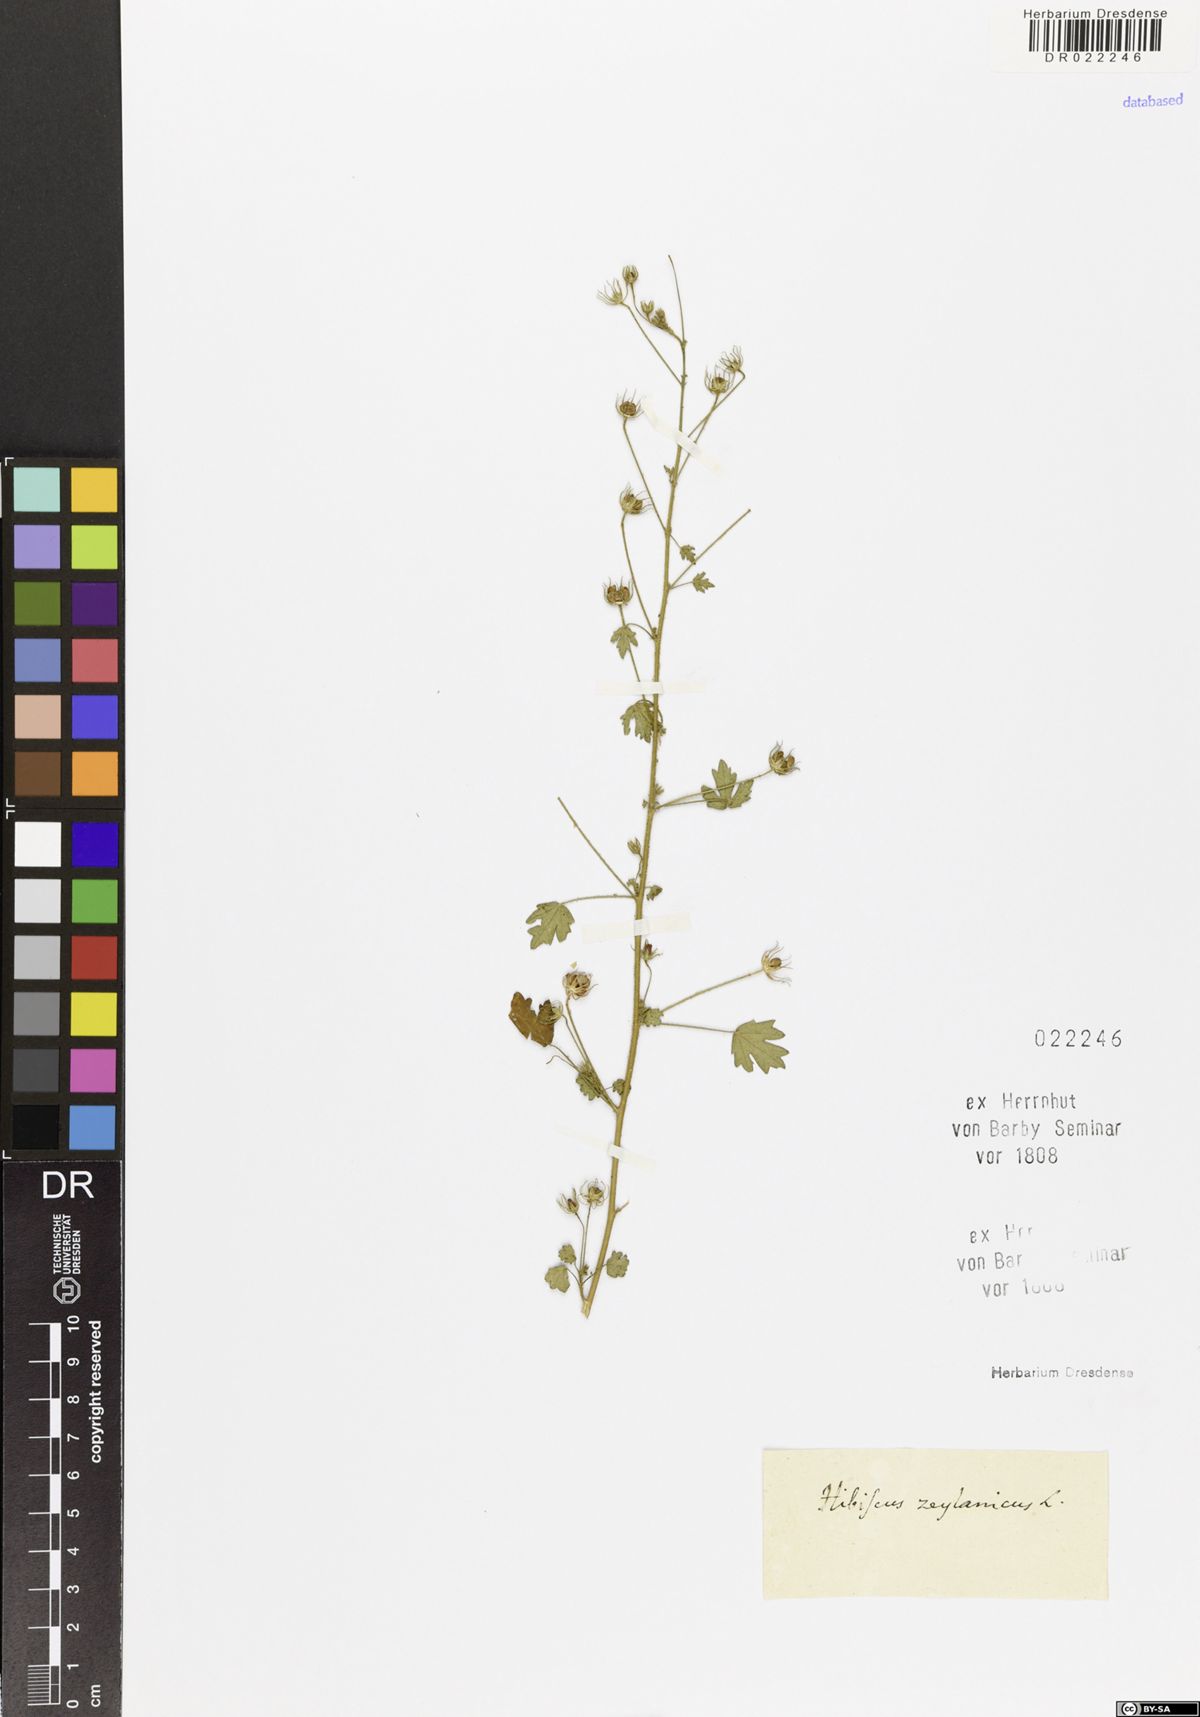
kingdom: Plantae
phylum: Tracheophyta
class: Magnoliopsida
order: Malvales
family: Malvaceae
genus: Pavonia
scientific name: Pavonia zeylanica
